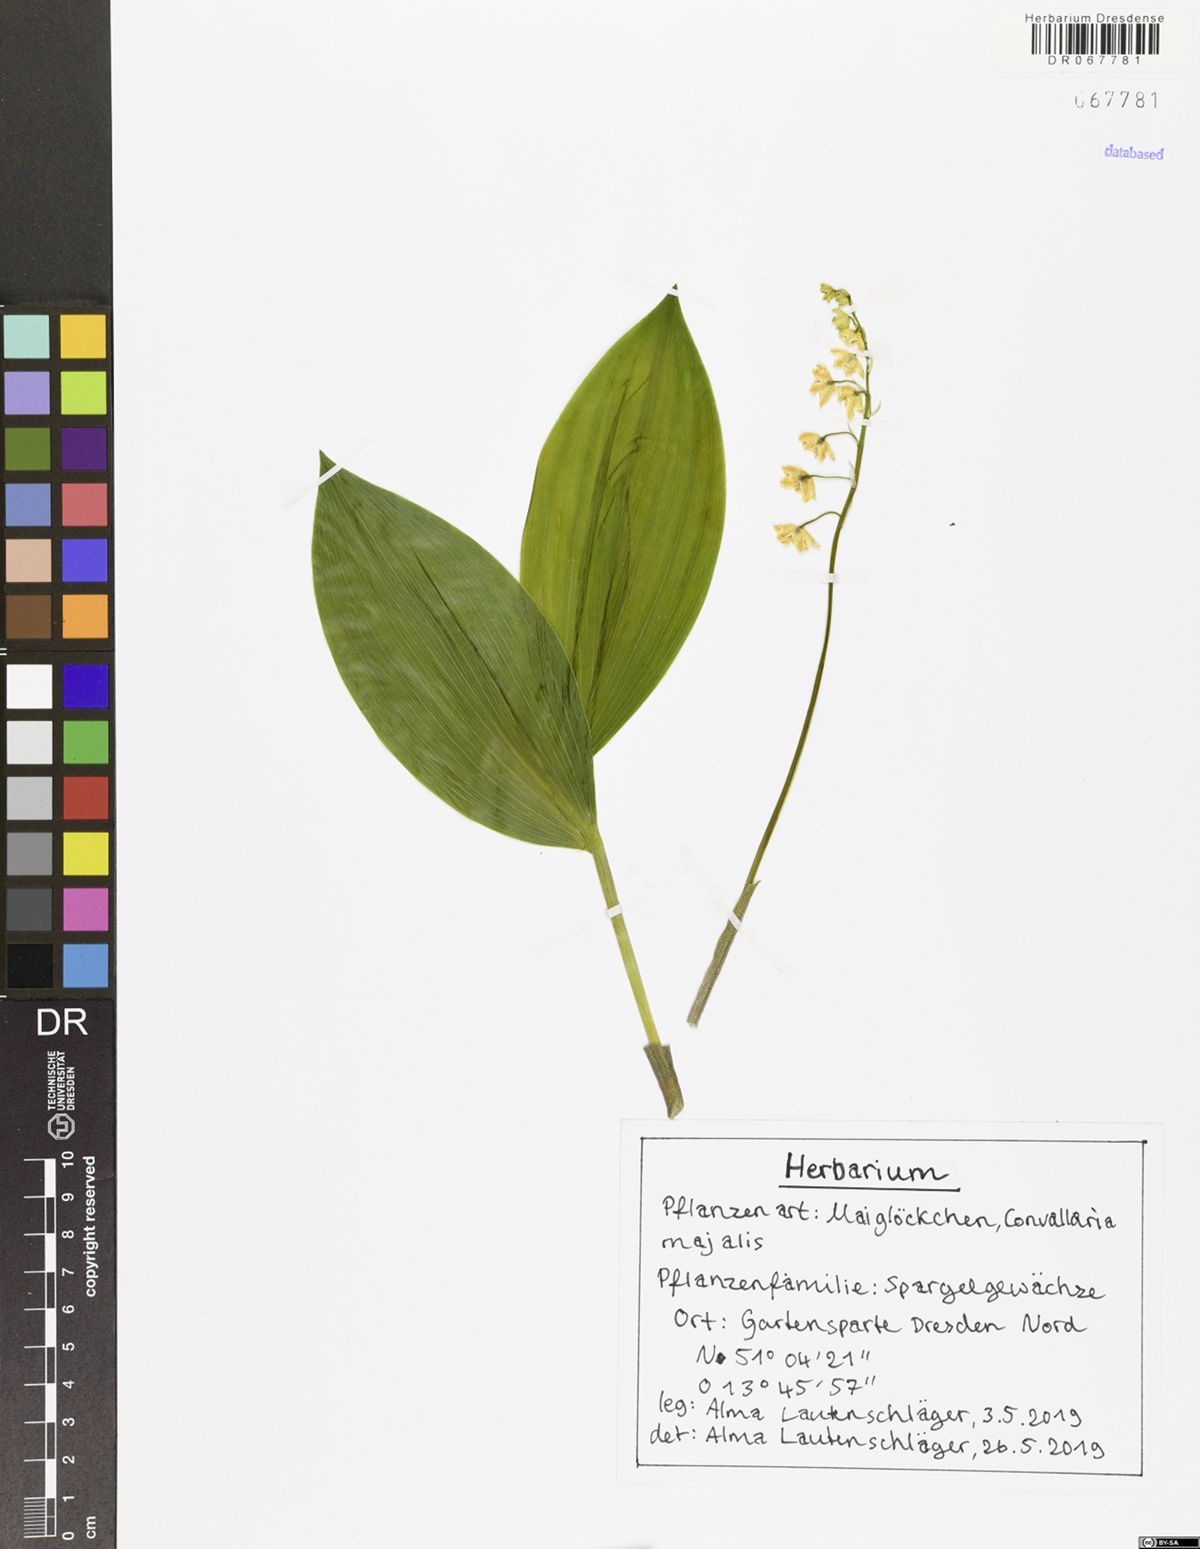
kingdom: Plantae
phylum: Tracheophyta
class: Liliopsida
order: Asparagales
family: Asparagaceae
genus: Convallaria
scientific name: Convallaria majalis
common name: Lily-of-the-valley
